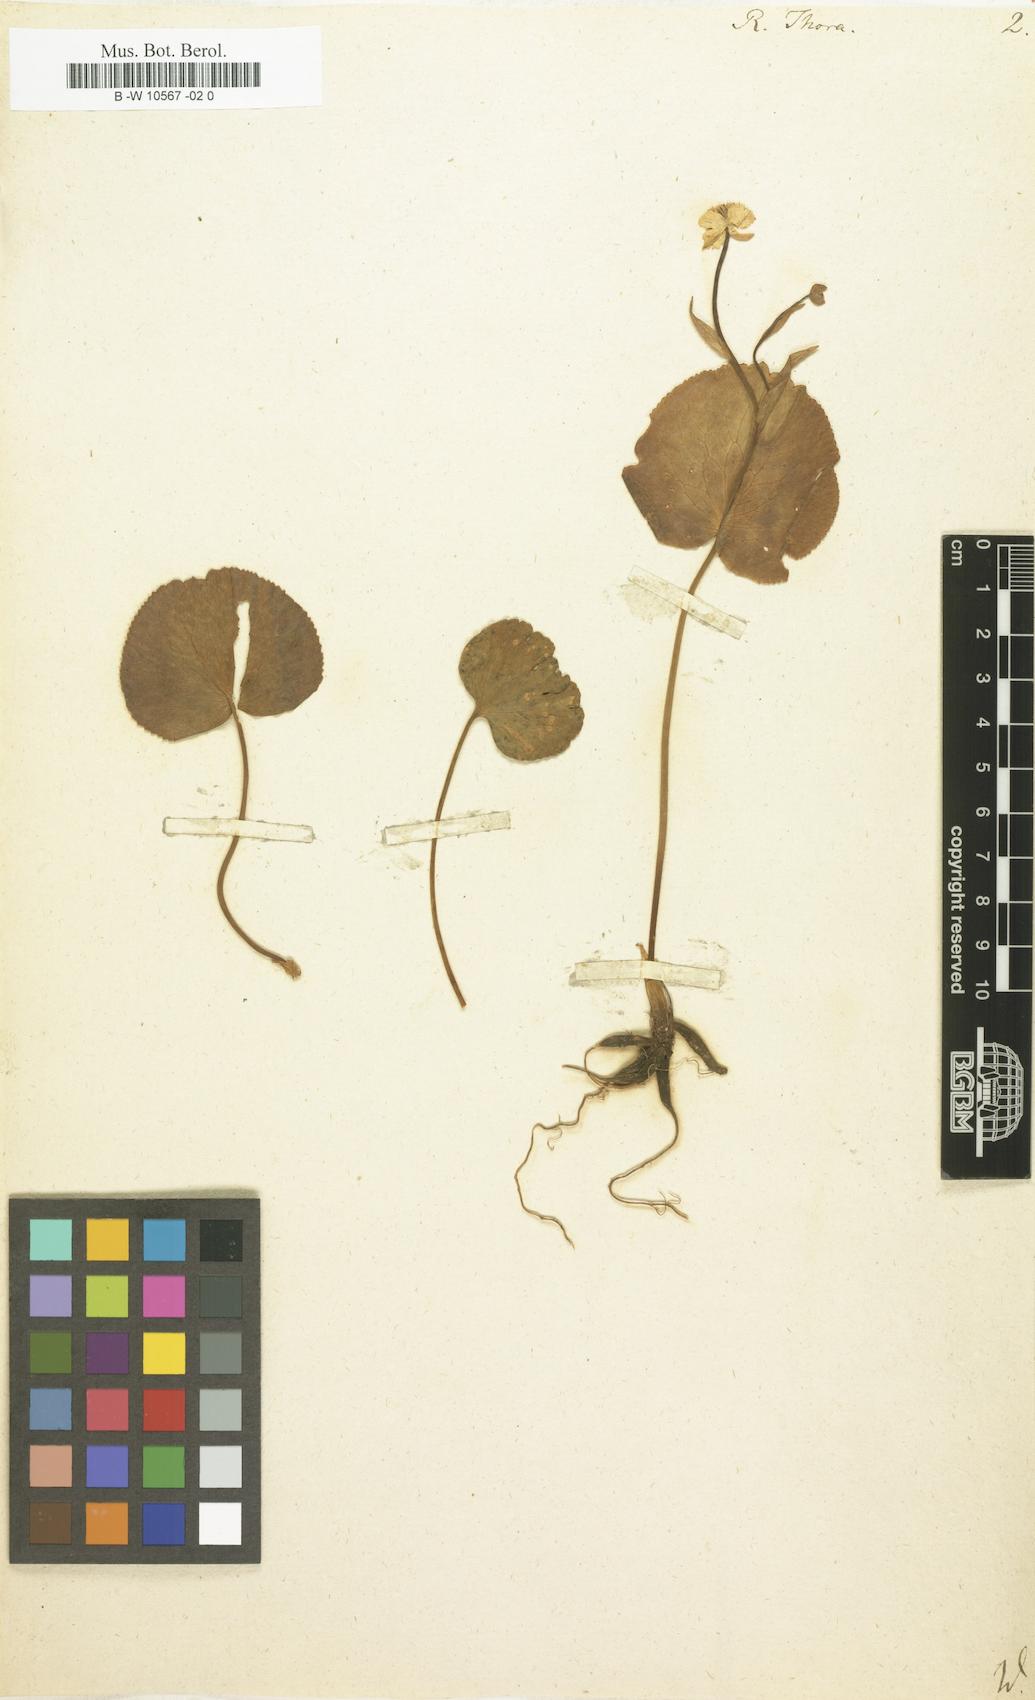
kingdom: Plantae
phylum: Tracheophyta
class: Magnoliopsida
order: Ranunculales
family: Ranunculaceae
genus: Ranunculus
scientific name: Ranunculus thora
